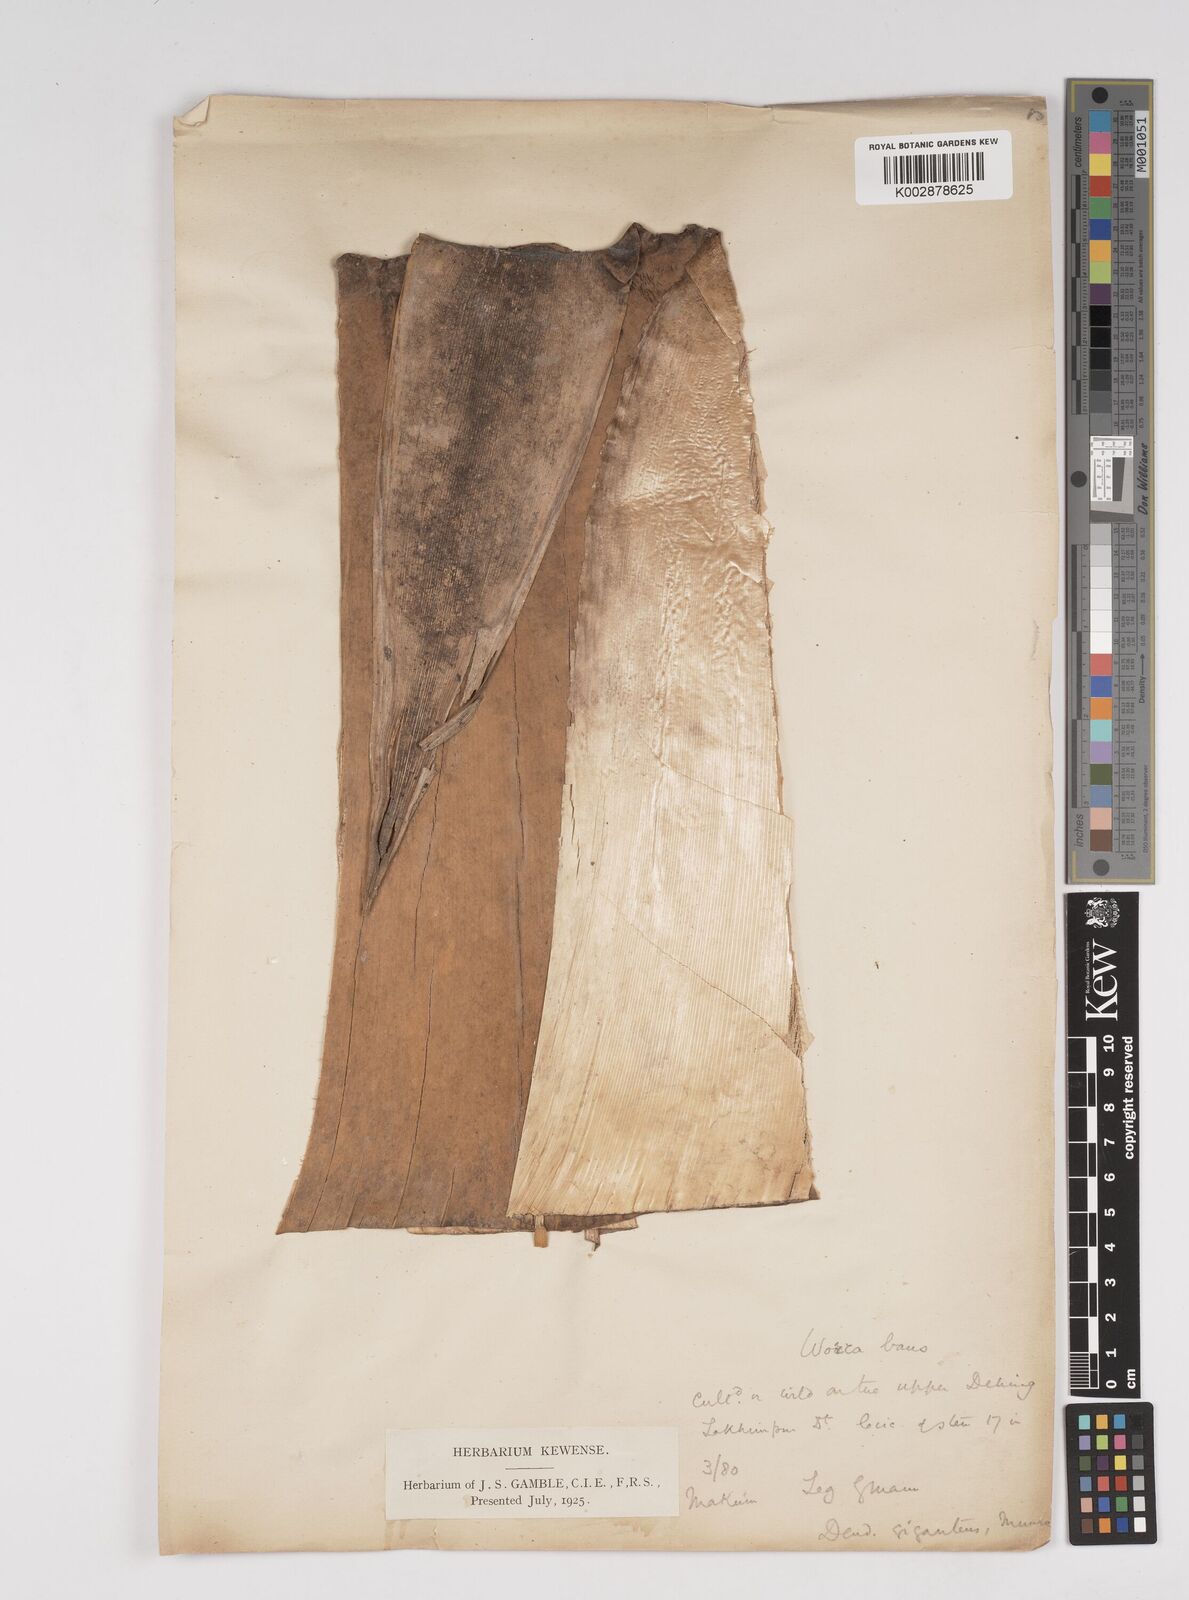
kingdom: Plantae
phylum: Tracheophyta
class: Liliopsida
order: Poales
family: Poaceae
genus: Dendrocalamus
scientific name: Dendrocalamus giganteus
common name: Giant bamboo
